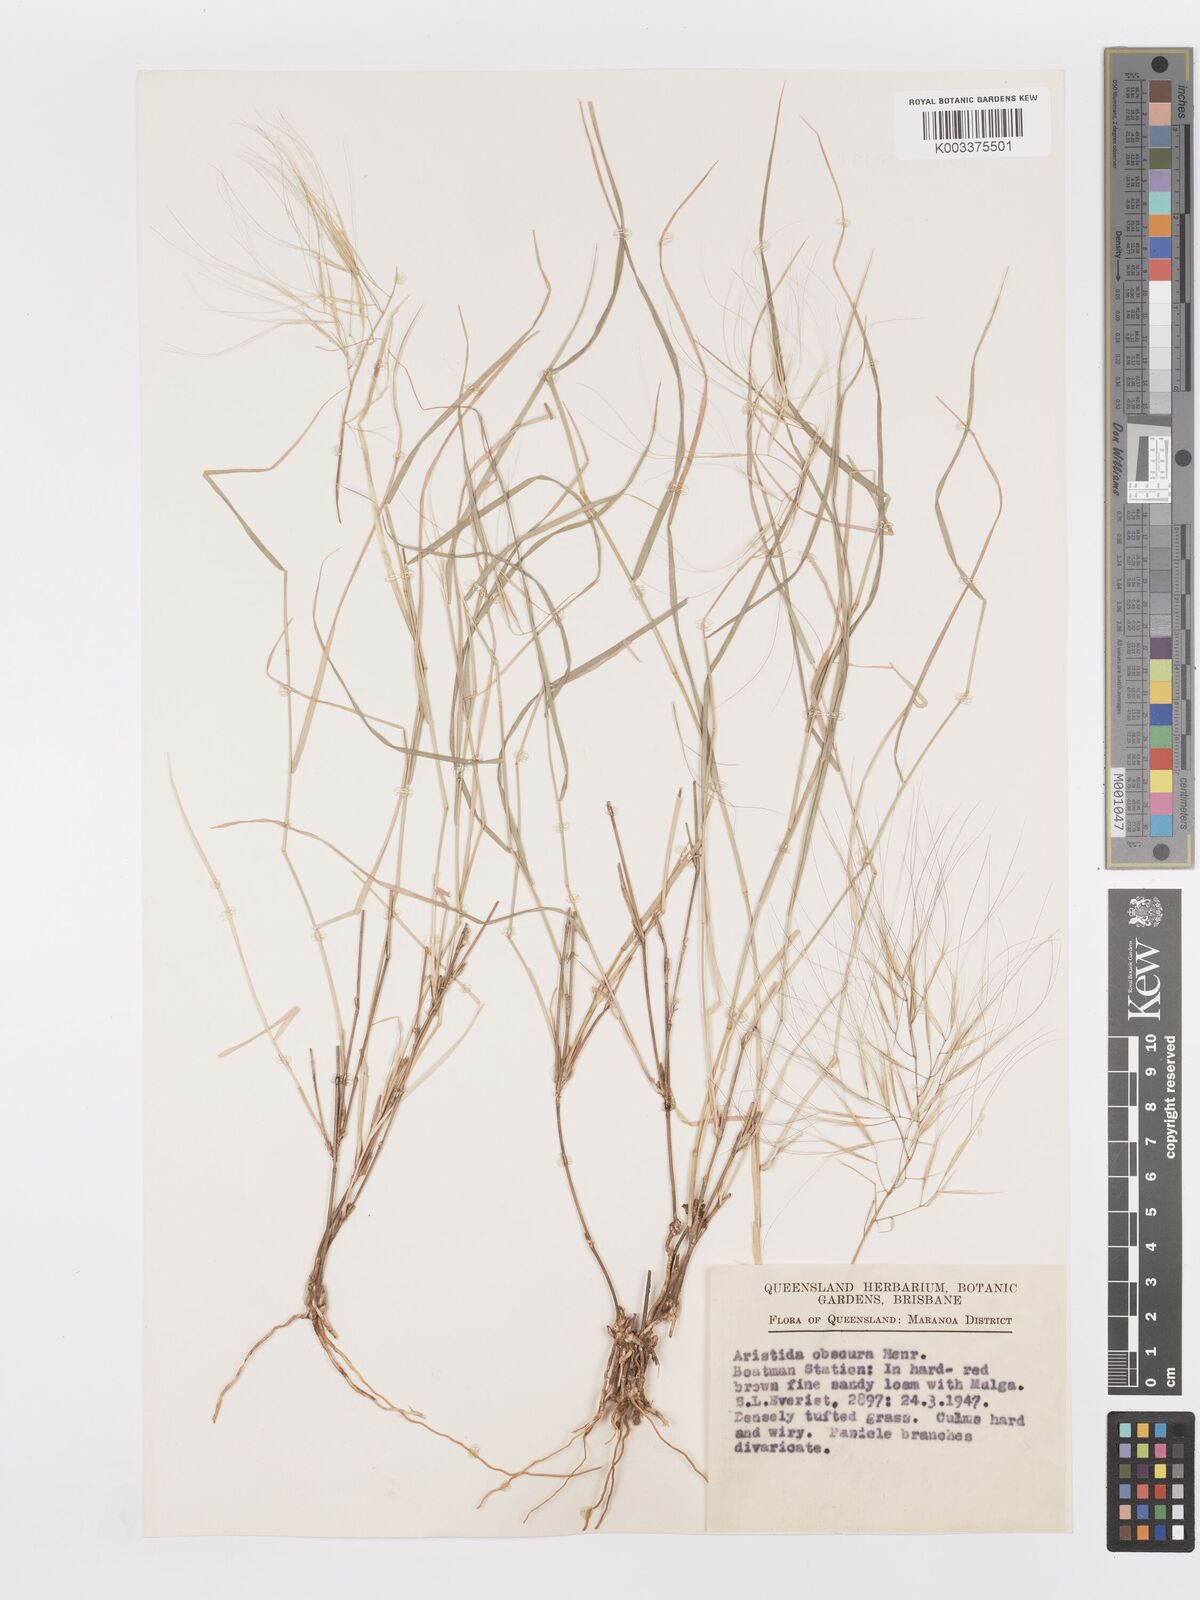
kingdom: Plantae
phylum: Tracheophyta
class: Liliopsida
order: Poales
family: Poaceae
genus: Aristida
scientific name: Aristida obscura
